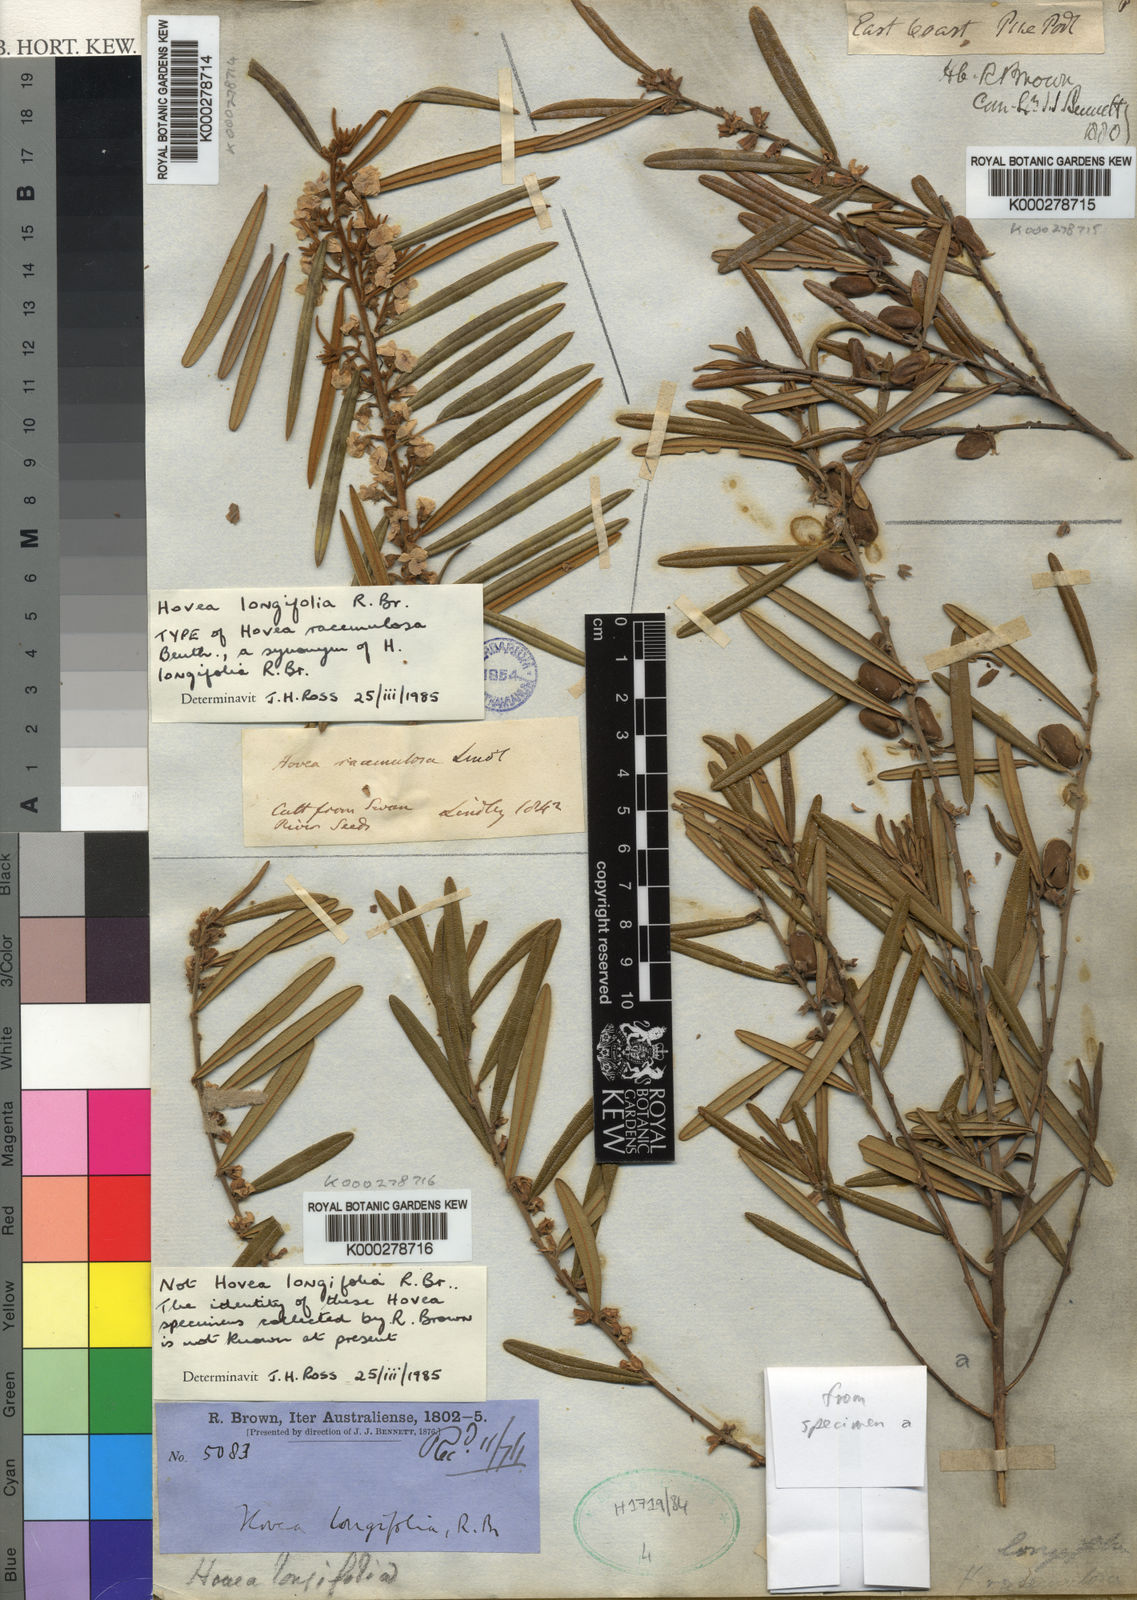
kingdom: Plantae
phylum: Tracheophyta
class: Magnoliopsida
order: Fabales
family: Fabaceae
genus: Hovea
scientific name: Hovea longifolia
